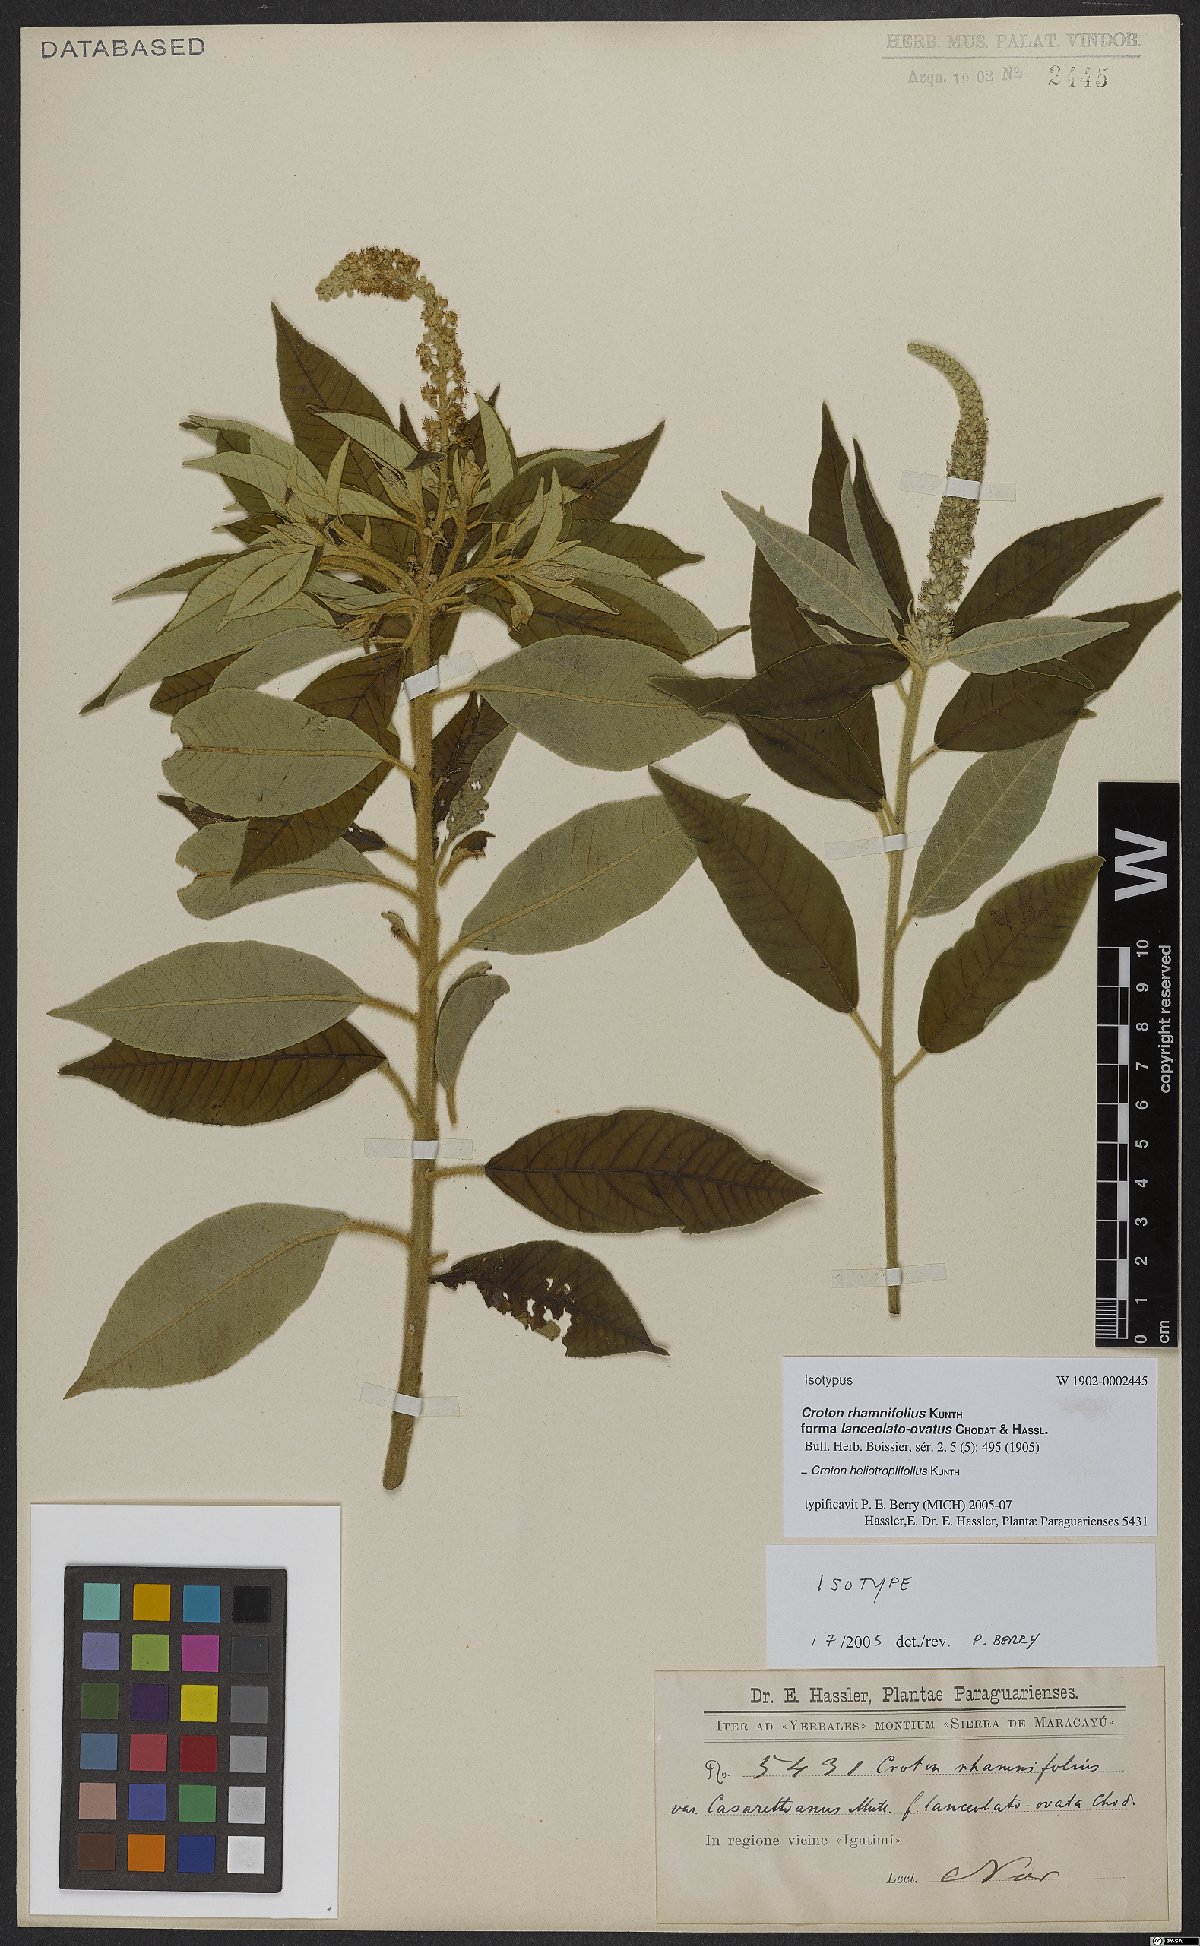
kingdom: Plantae
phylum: Tracheophyta
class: Magnoliopsida
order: Malpighiales
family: Euphorbiaceae
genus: Croton
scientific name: Croton heliotropiifolius
